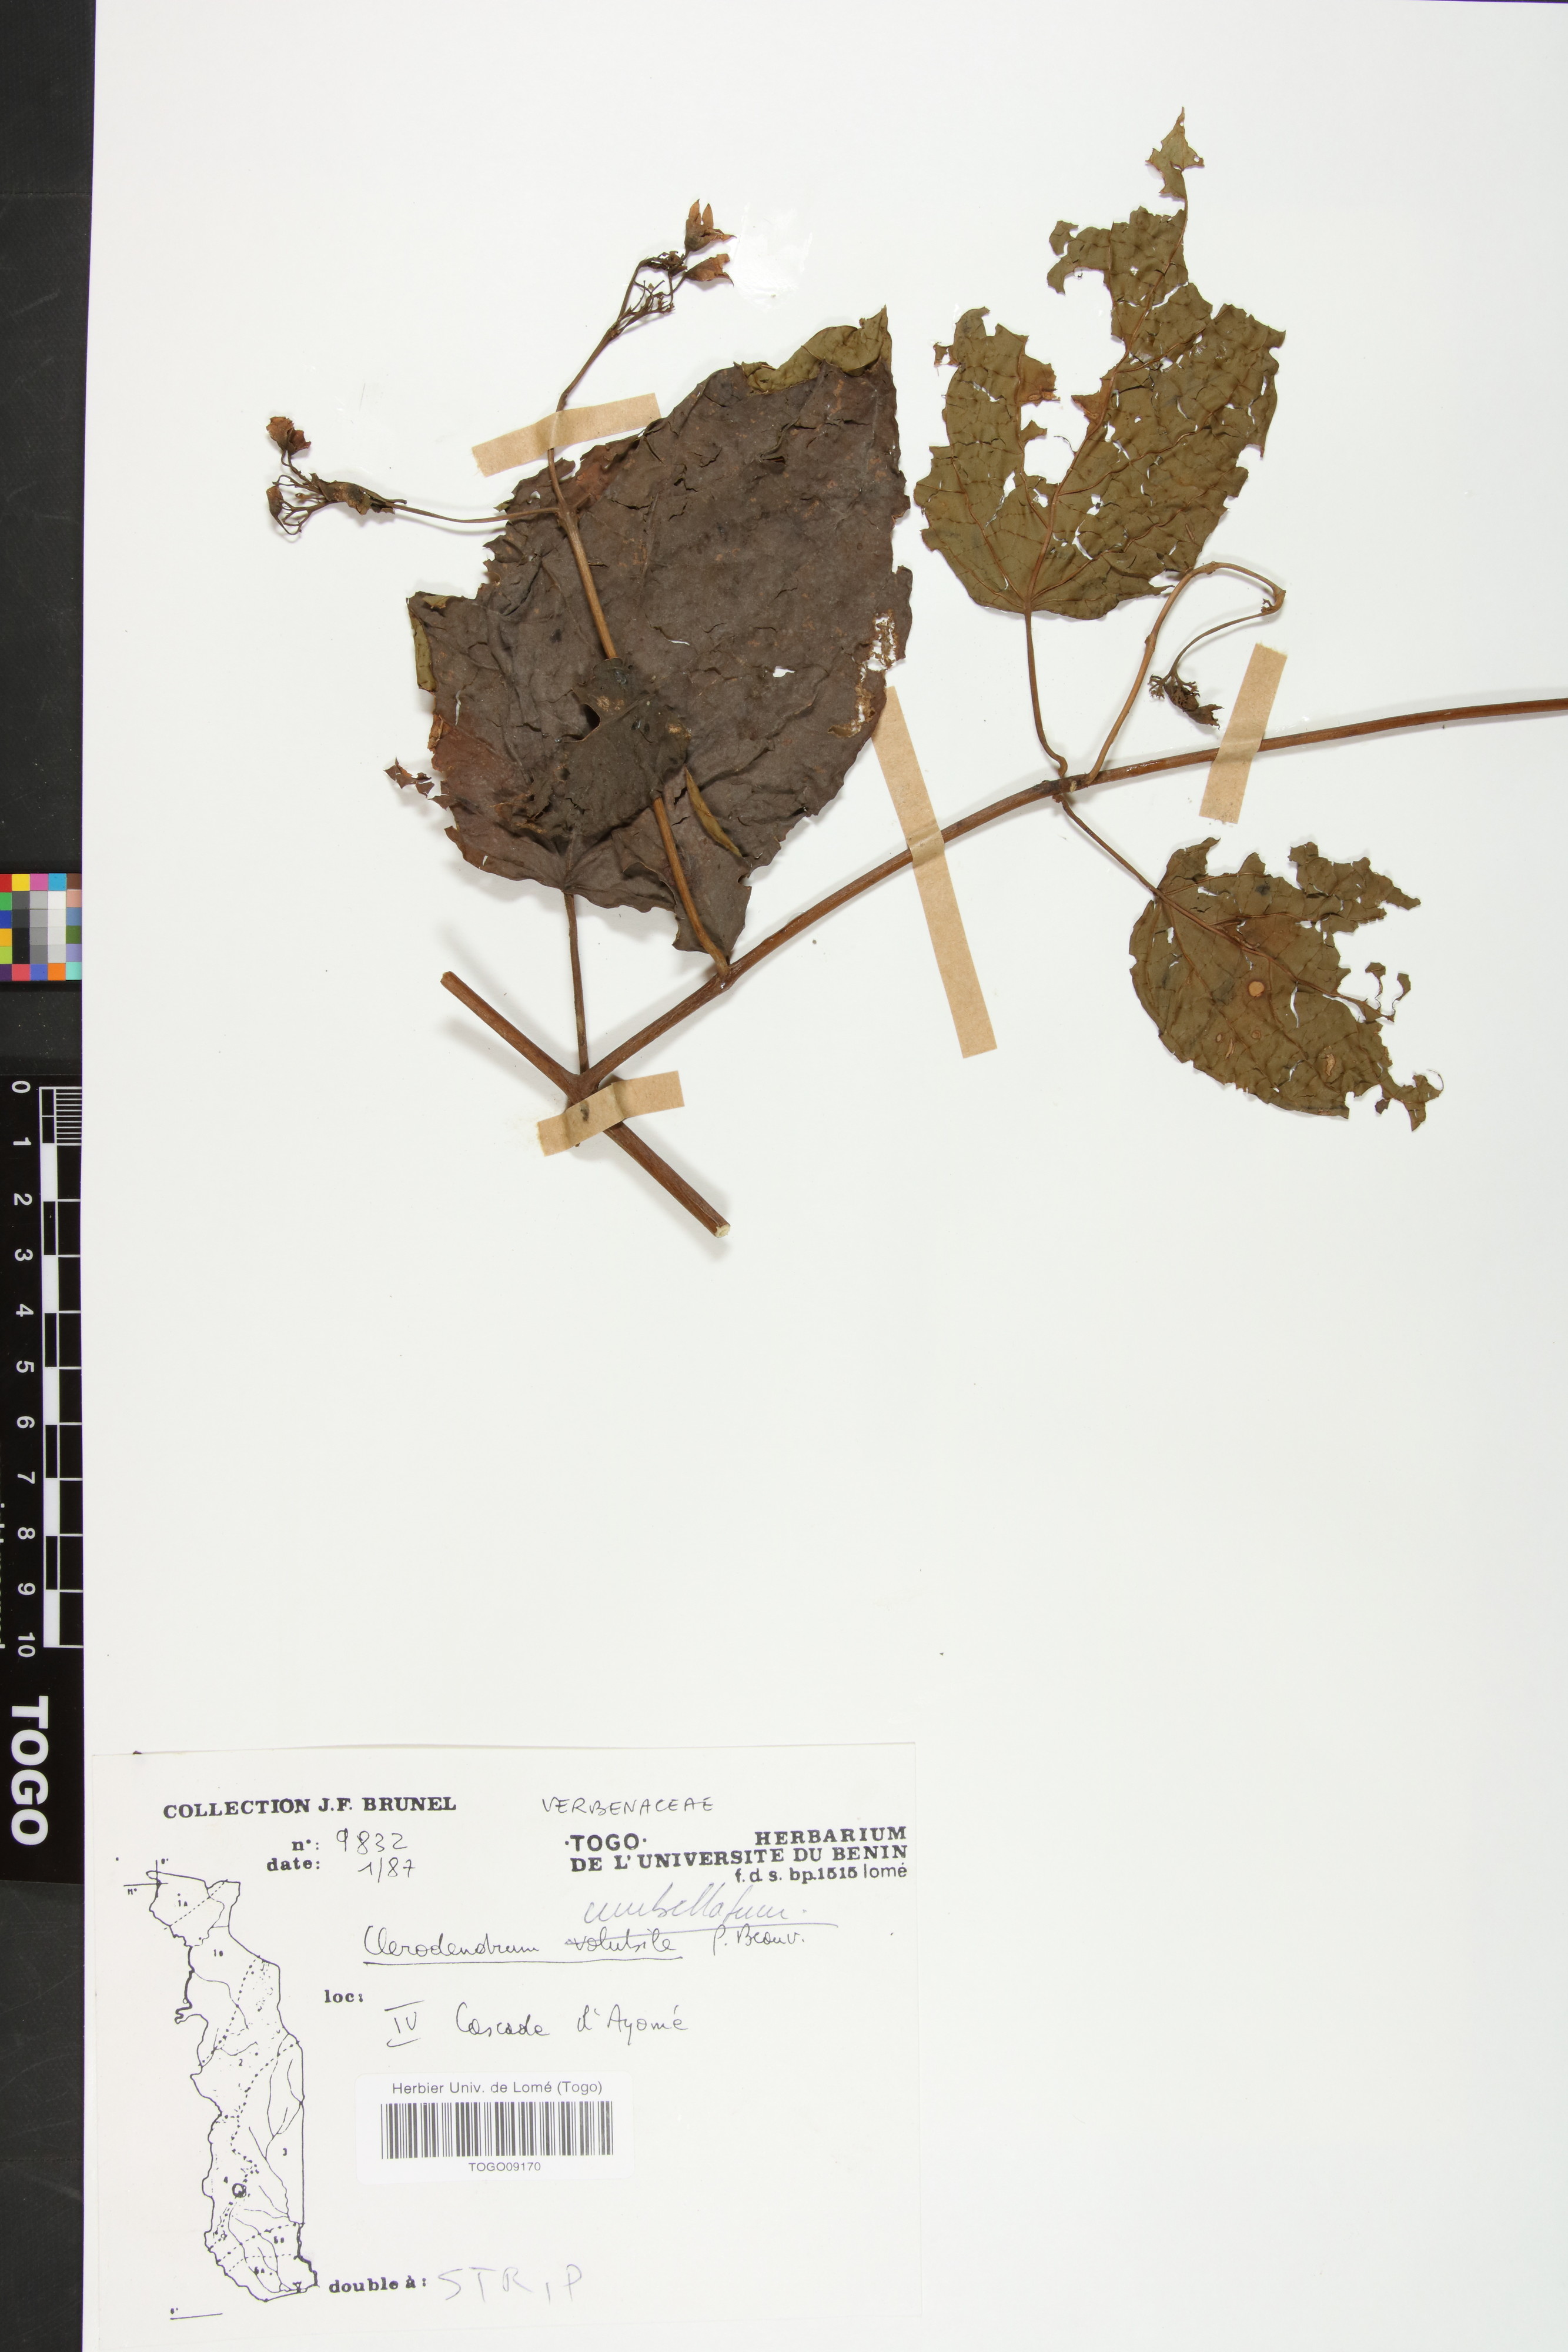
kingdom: Plantae
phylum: Tracheophyta
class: Magnoliopsida
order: Lamiales
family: Lamiaceae
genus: Clerodendrum
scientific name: Clerodendrum umbellatum
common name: Umbel clerodendrum
